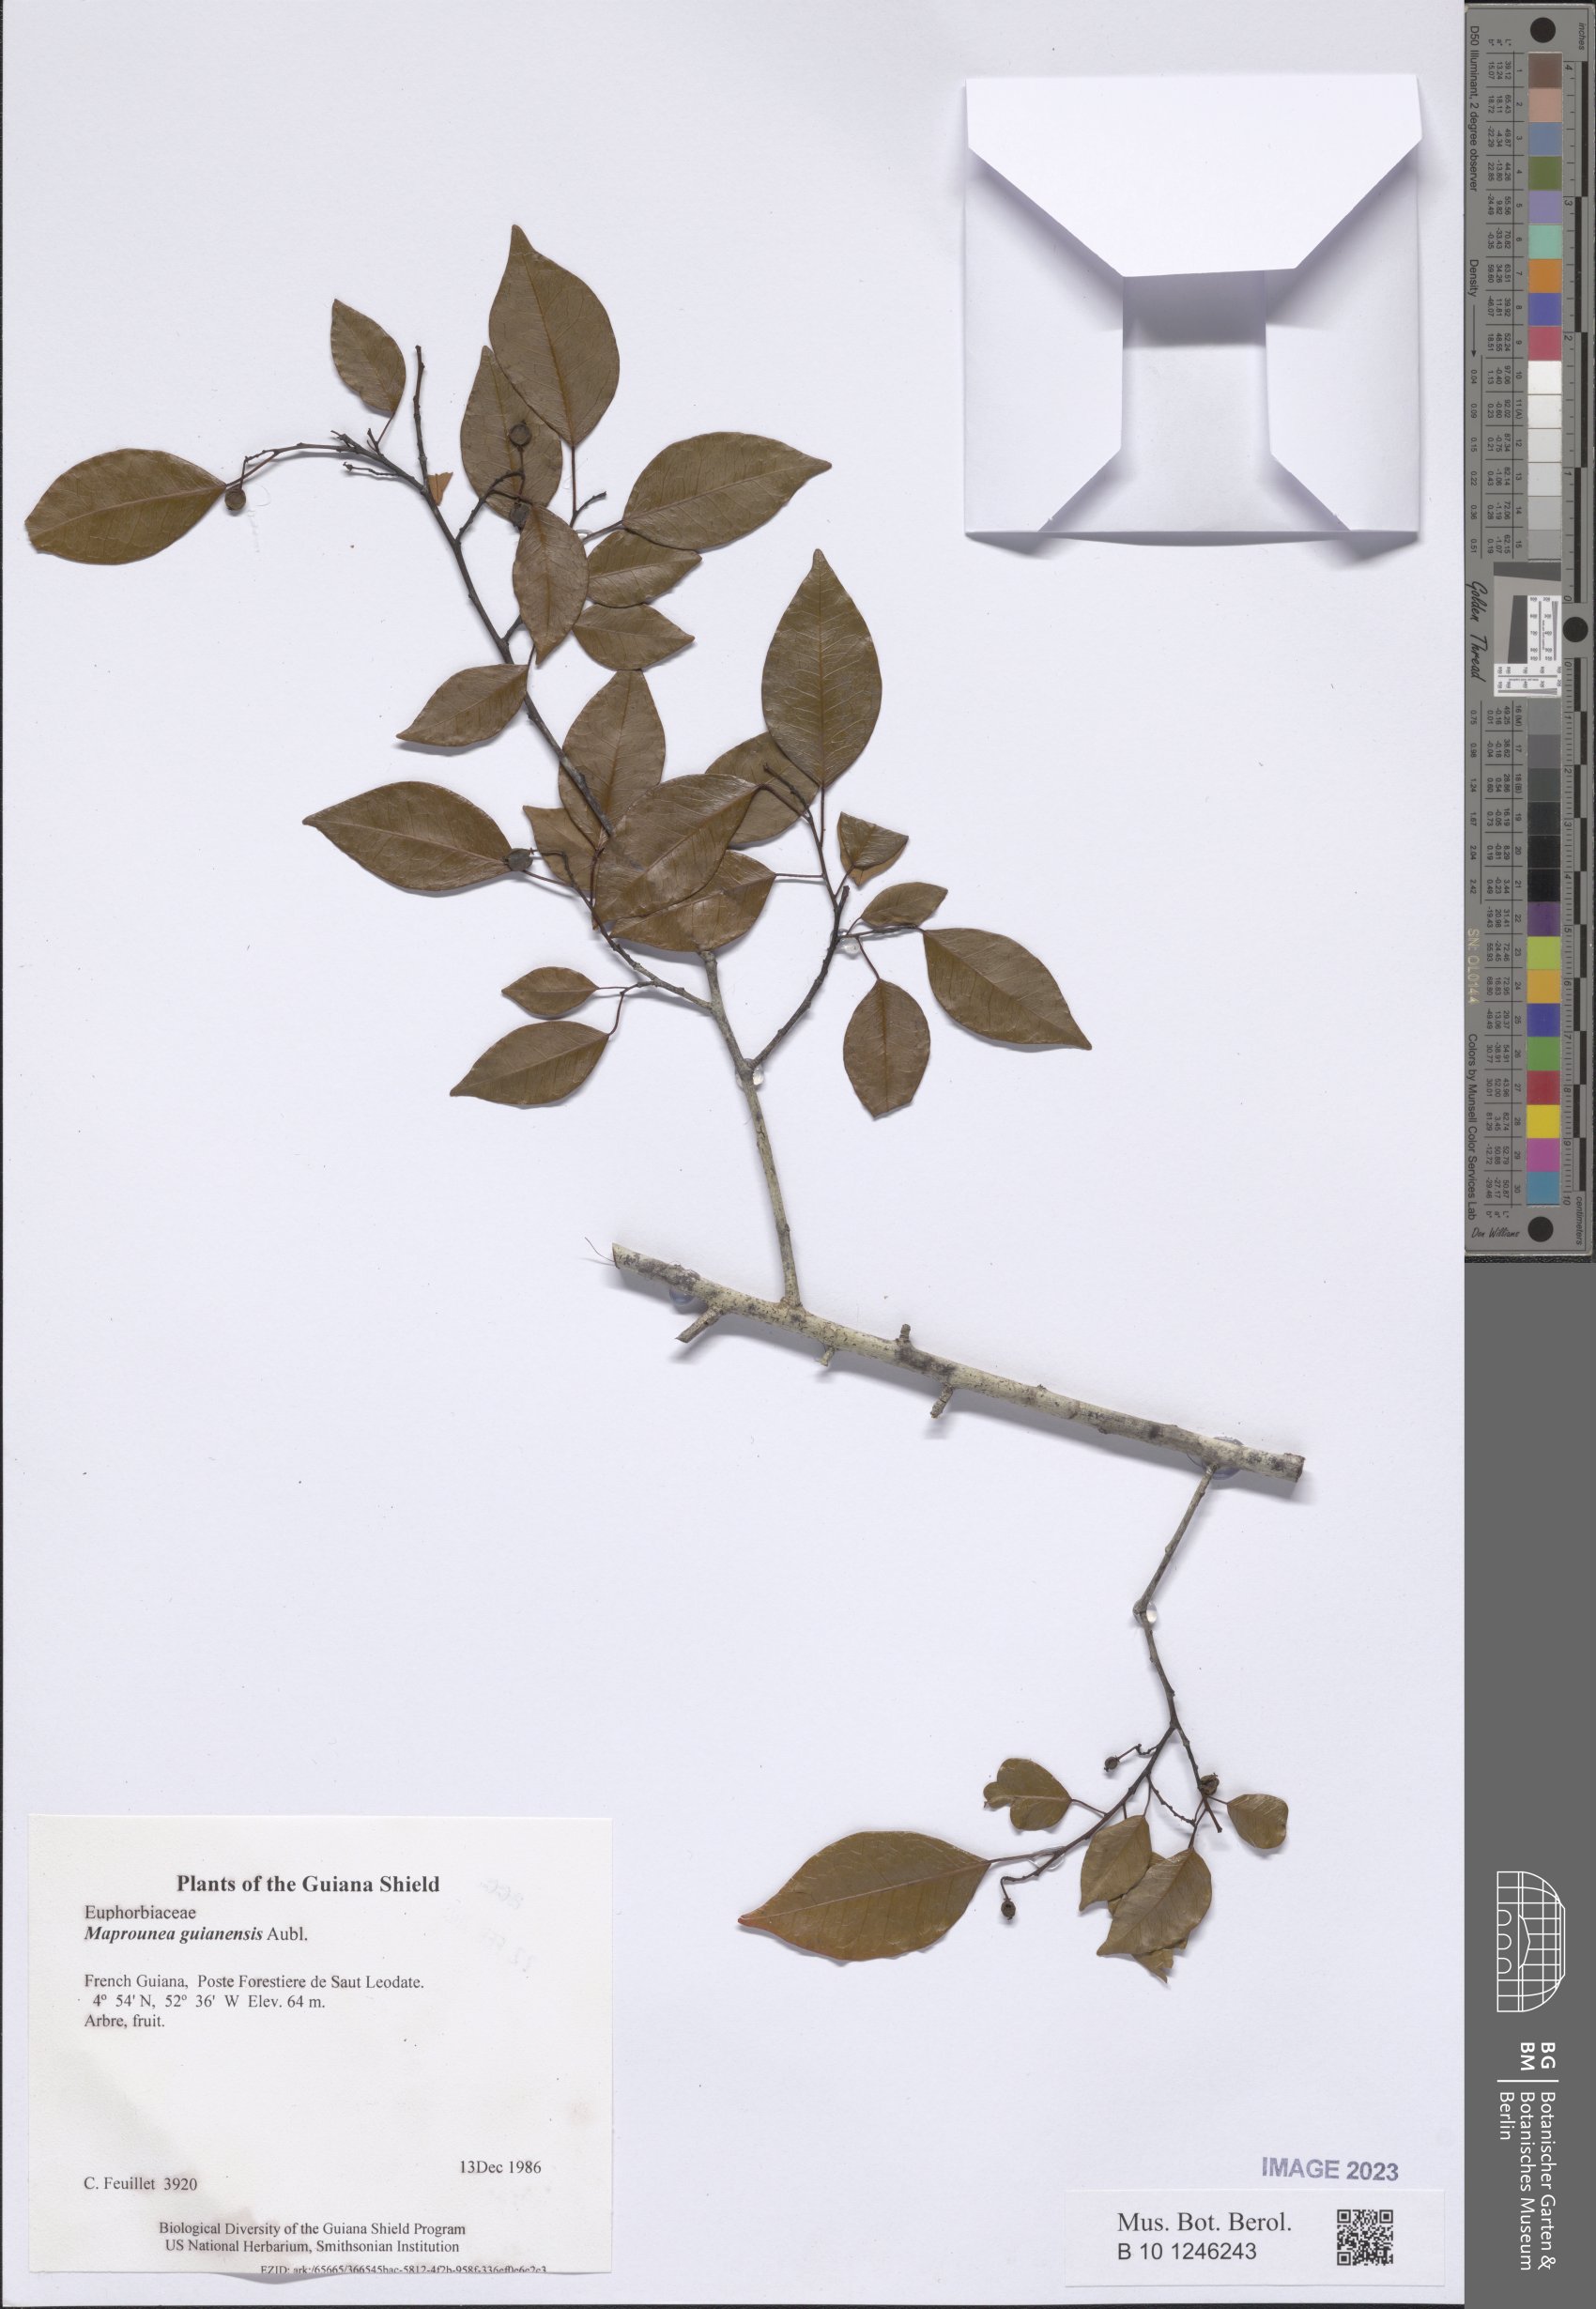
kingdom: Plantae
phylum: Tracheophyta
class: Magnoliopsida
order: Malpighiales
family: Euphorbiaceae
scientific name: Euphorbiaceae
